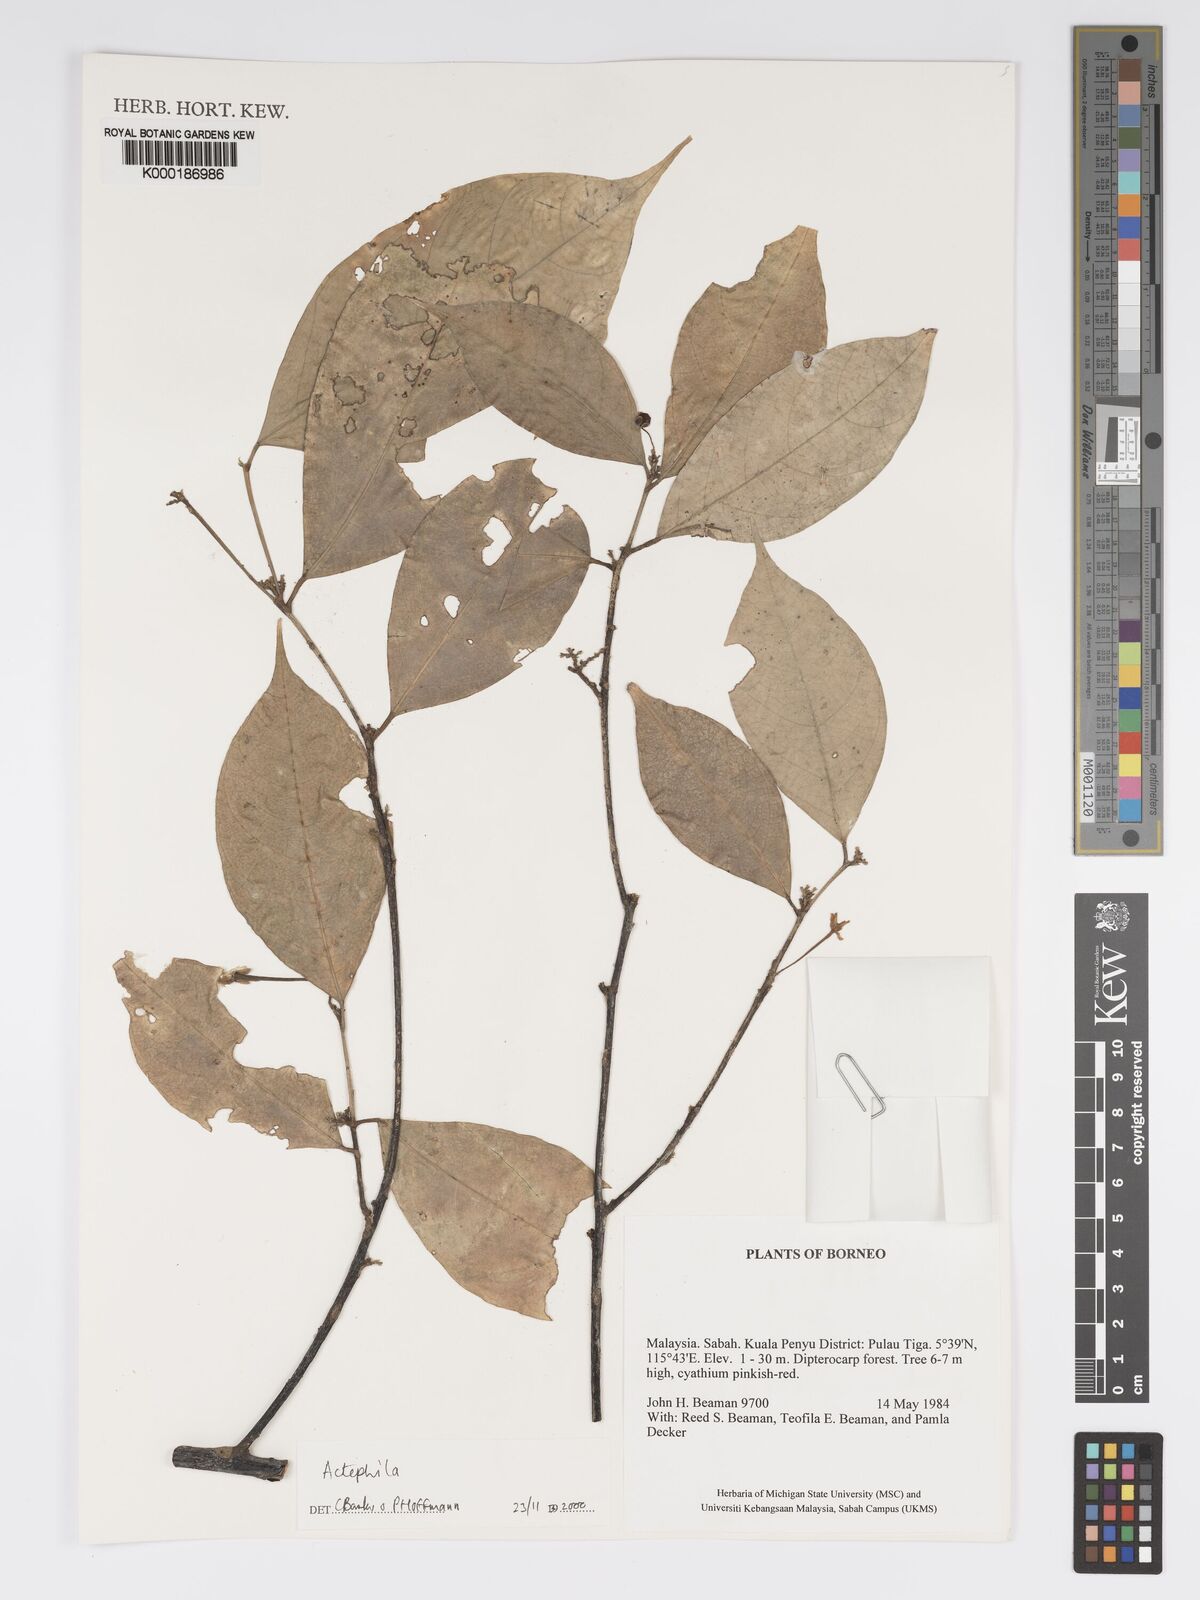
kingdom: Plantae
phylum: Tracheophyta
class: Magnoliopsida
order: Malpighiales
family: Phyllanthaceae
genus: Actephila
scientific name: Actephila
